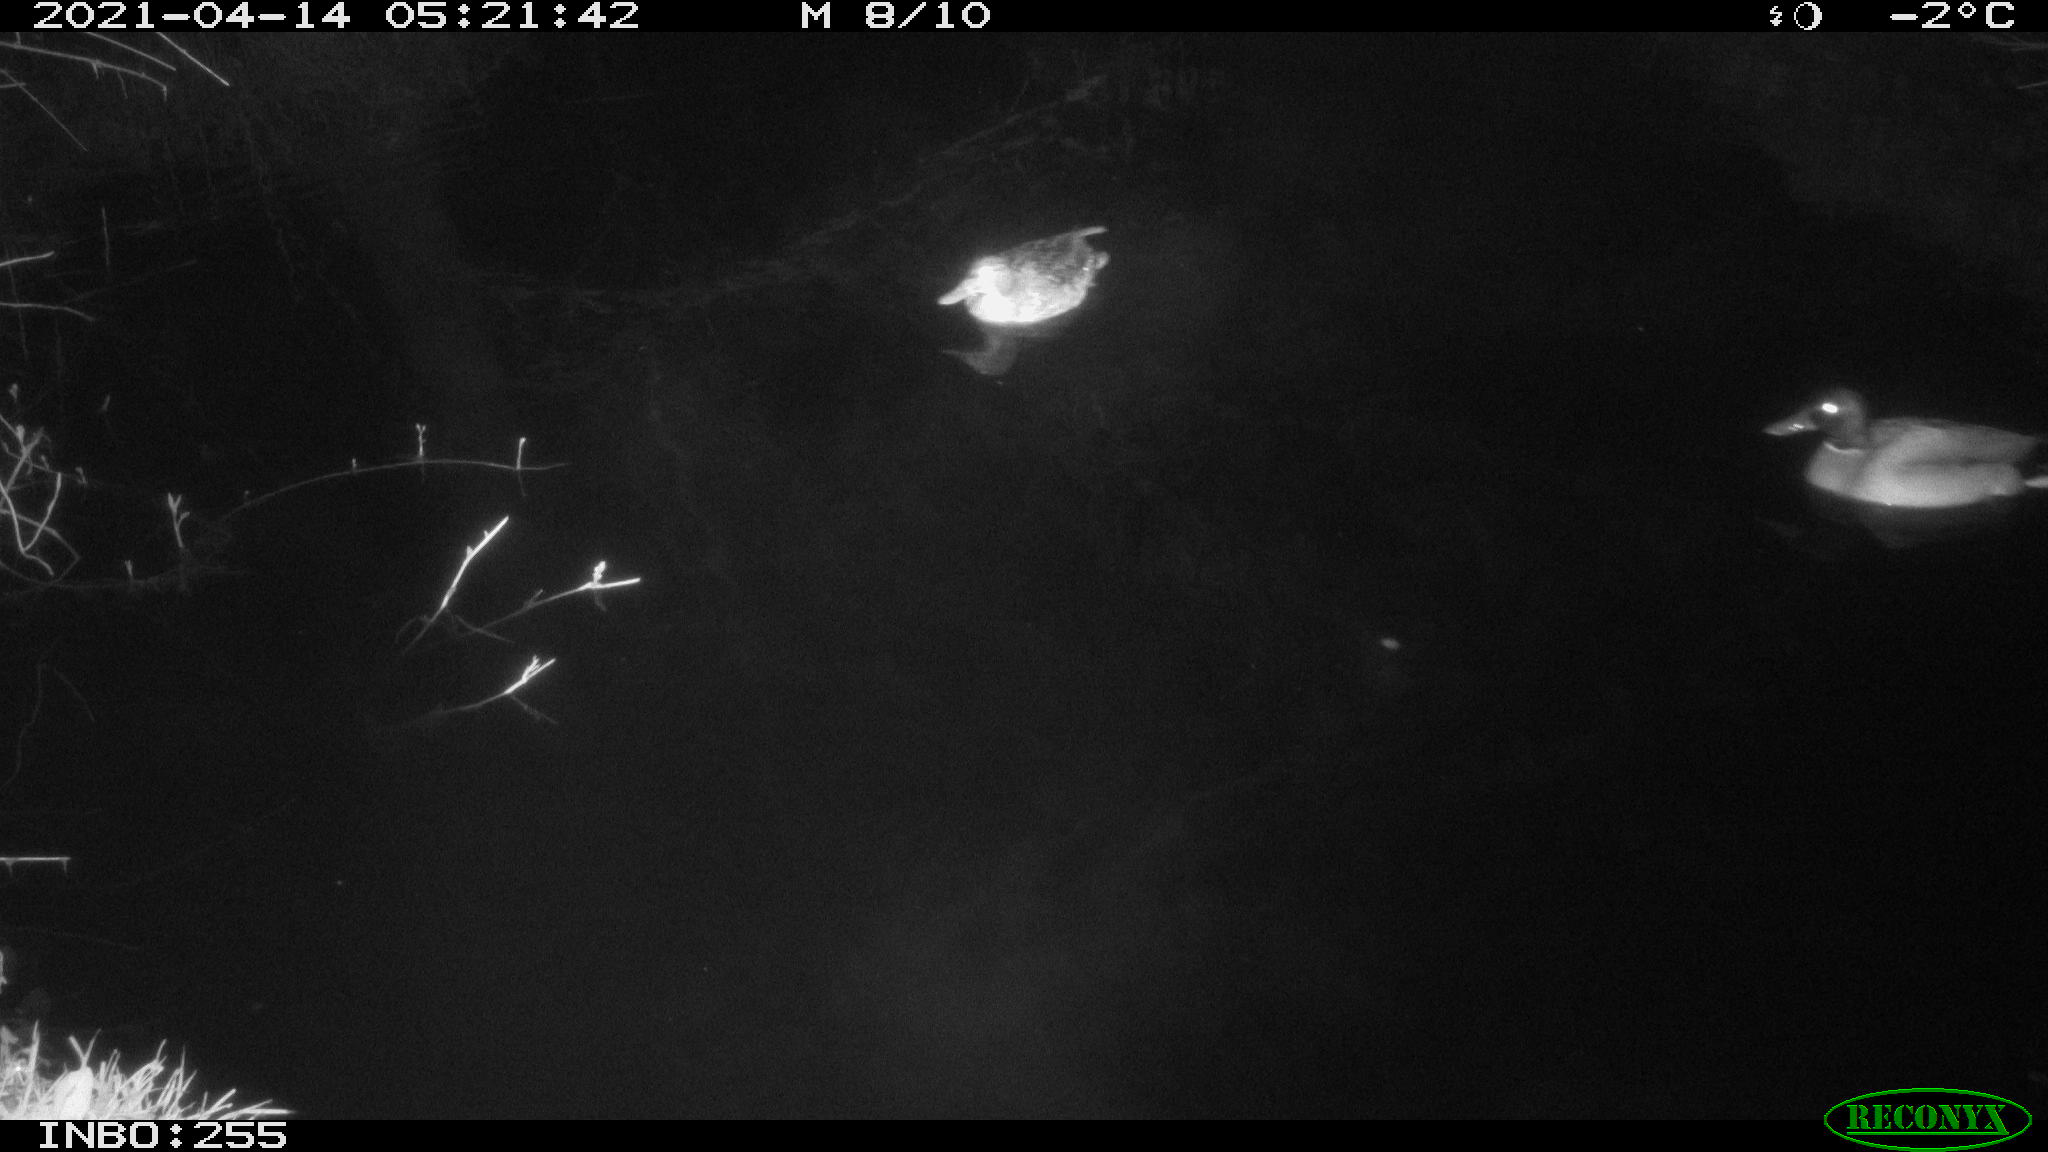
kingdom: Animalia
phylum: Chordata
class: Aves
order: Anseriformes
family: Anatidae
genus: Anas
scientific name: Anas platyrhynchos
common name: Mallard
